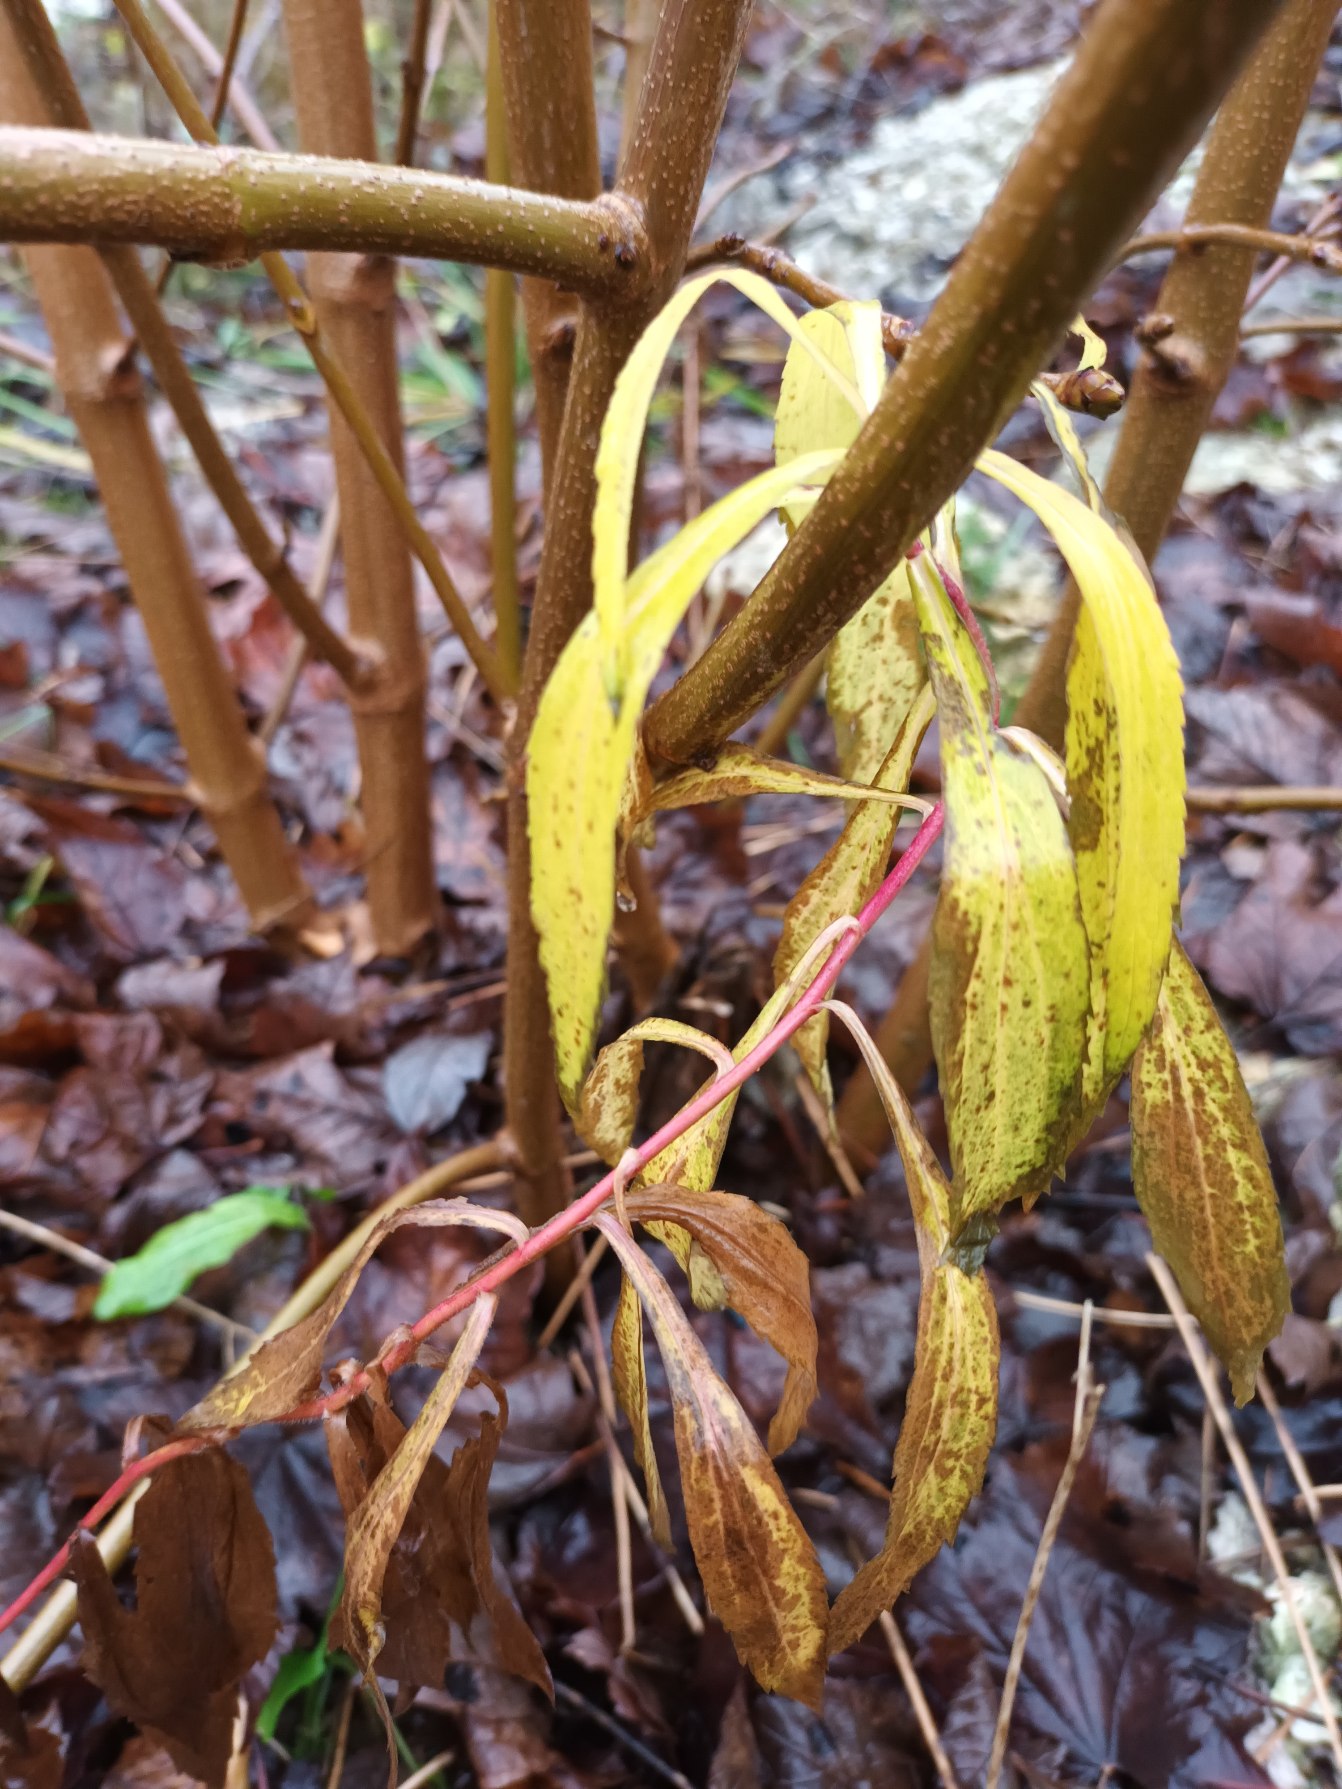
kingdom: Plantae
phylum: Tracheophyta
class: Magnoliopsida
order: Asterales
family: Asteraceae
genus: Solidago
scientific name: Solidago gigantea
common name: Sildig gyldenris
